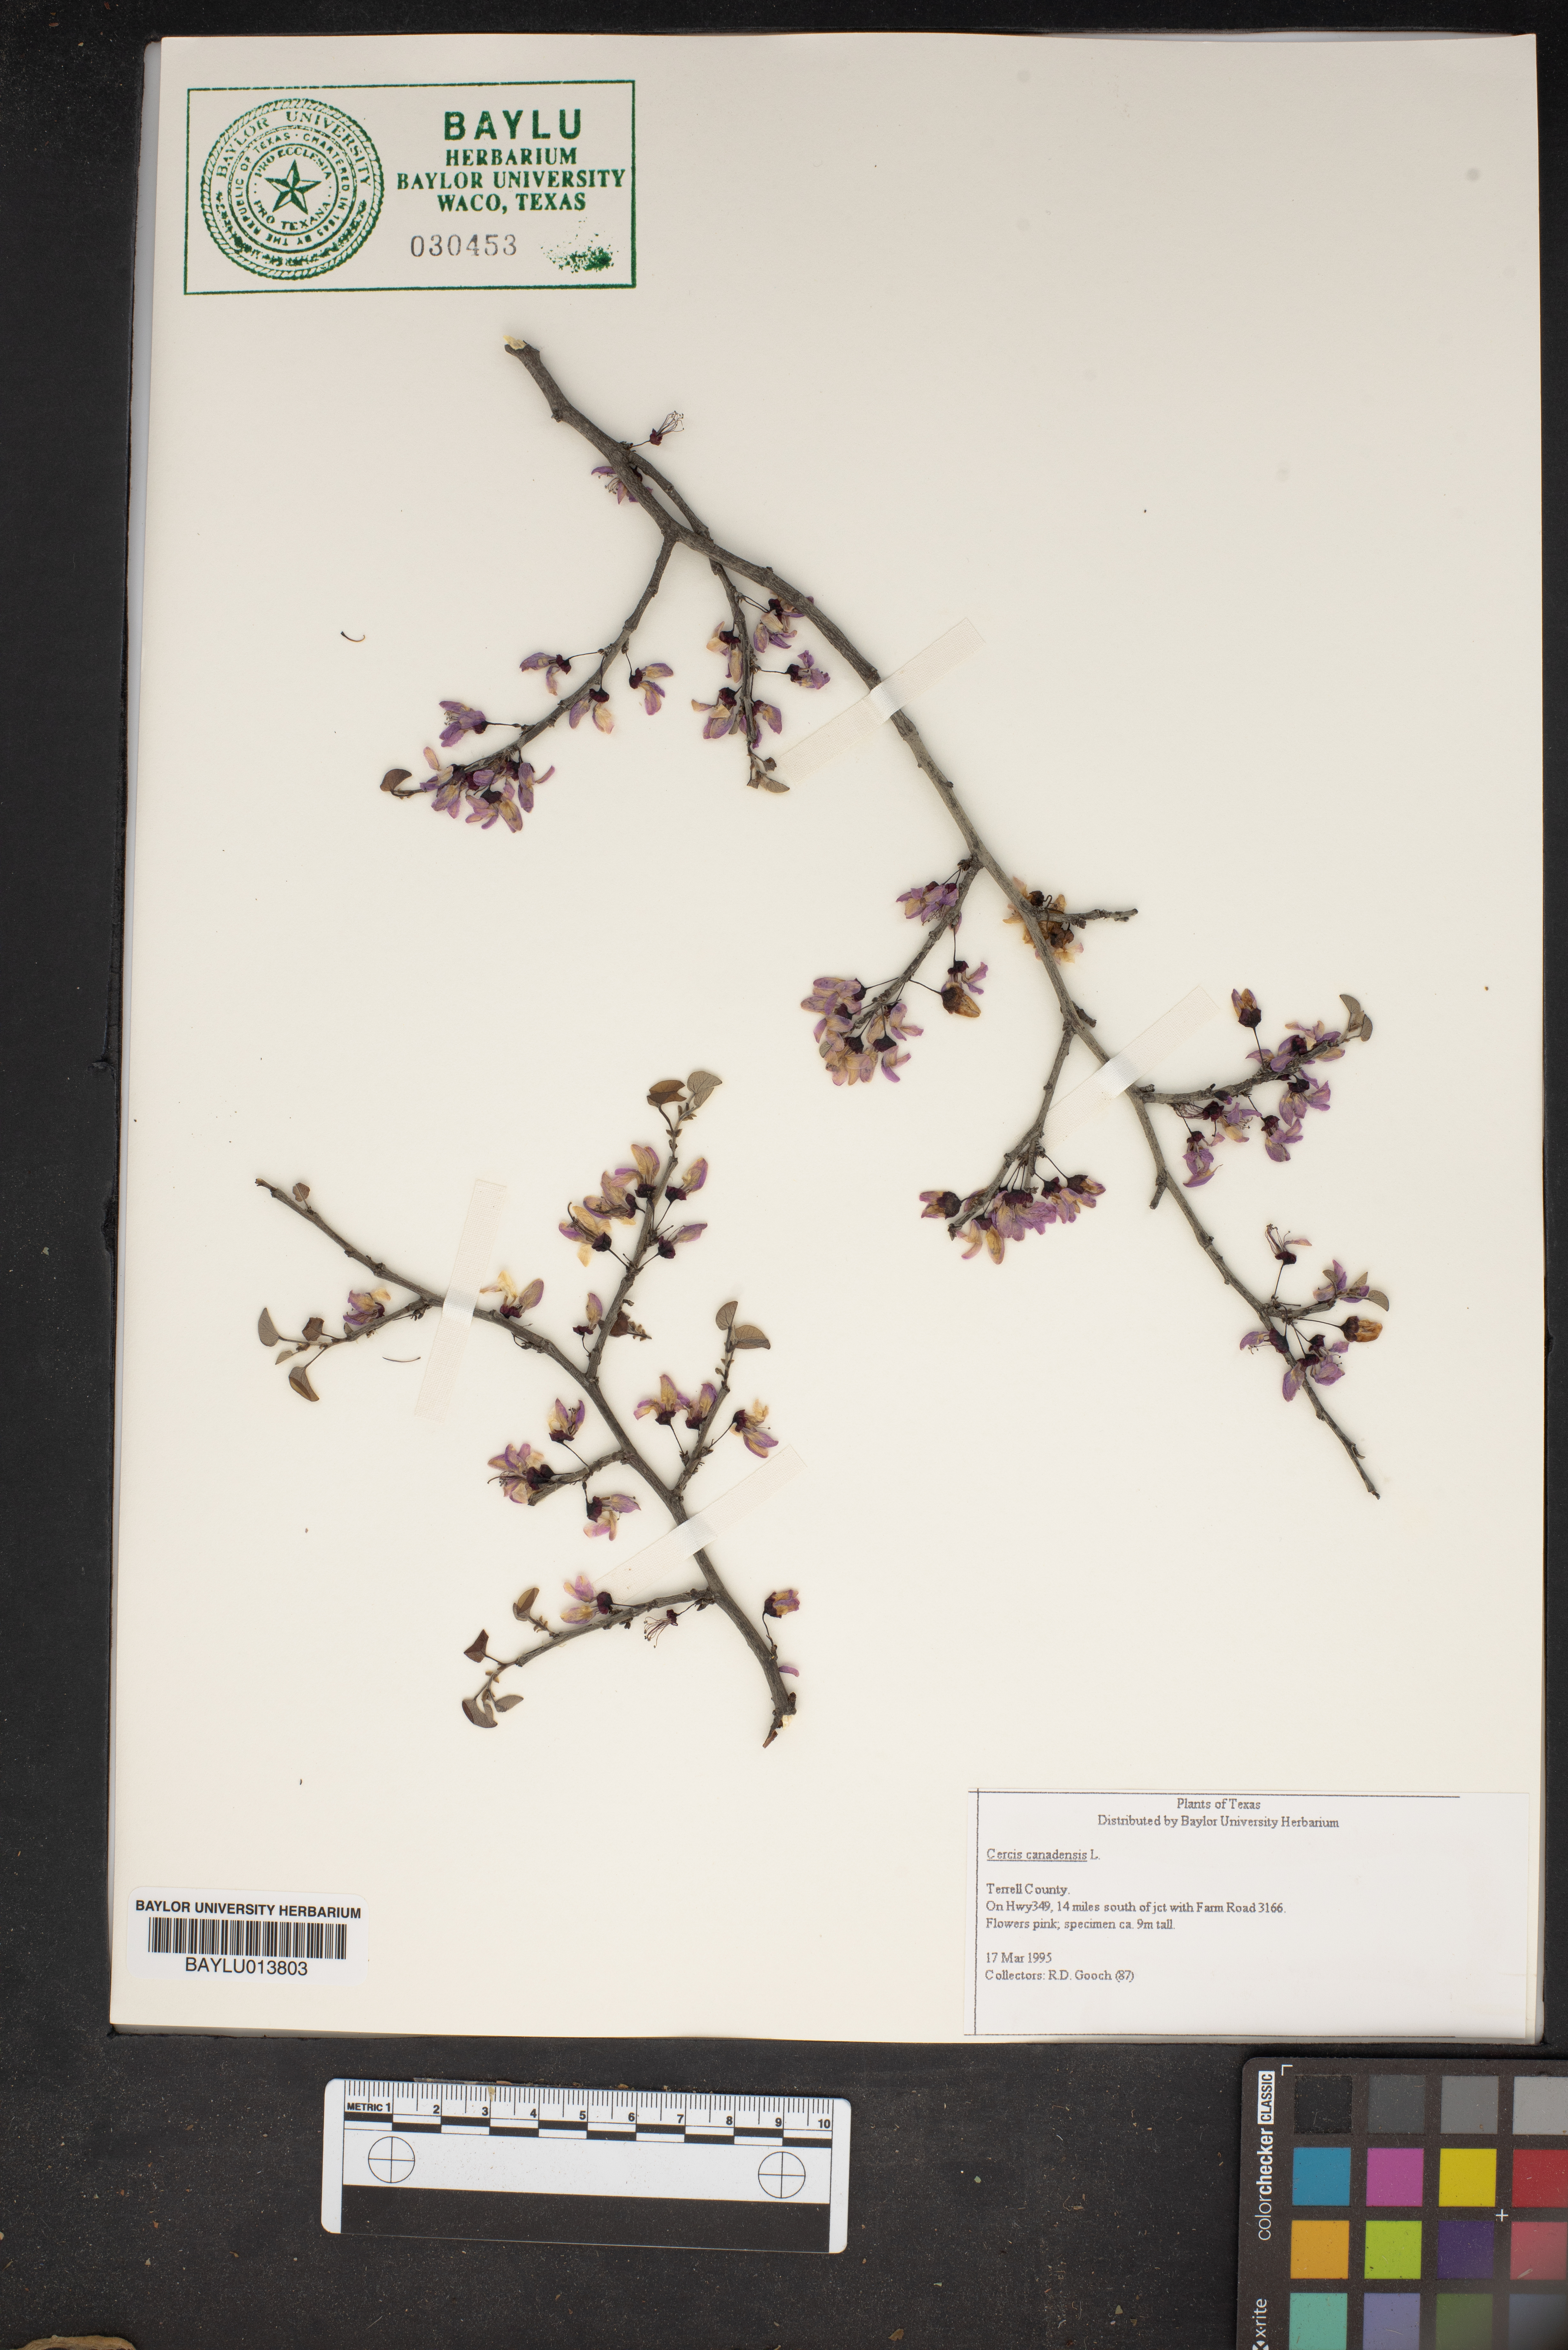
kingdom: Plantae
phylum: Tracheophyta
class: Magnoliopsida
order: Fabales
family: Fabaceae
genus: Cercis
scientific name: Cercis canadensis
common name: Eastern redbud
